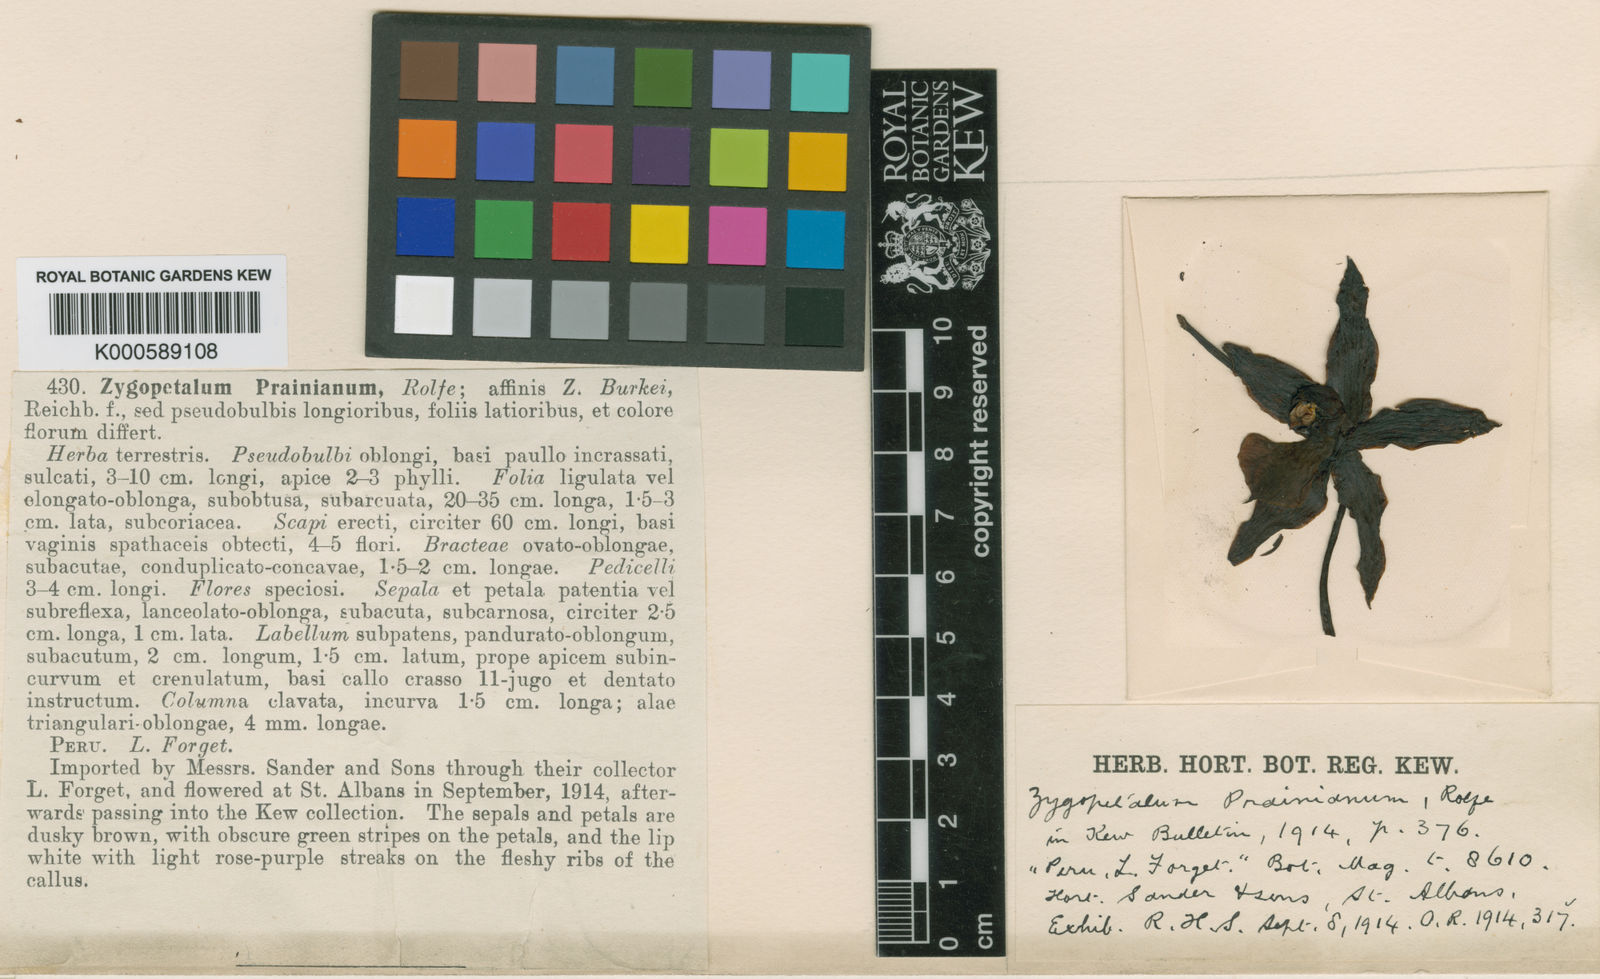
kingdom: Plantae
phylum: Tracheophyta
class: Liliopsida
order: Asparagales
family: Orchidaceae
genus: Galeottia
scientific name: Galeottia prainiana
